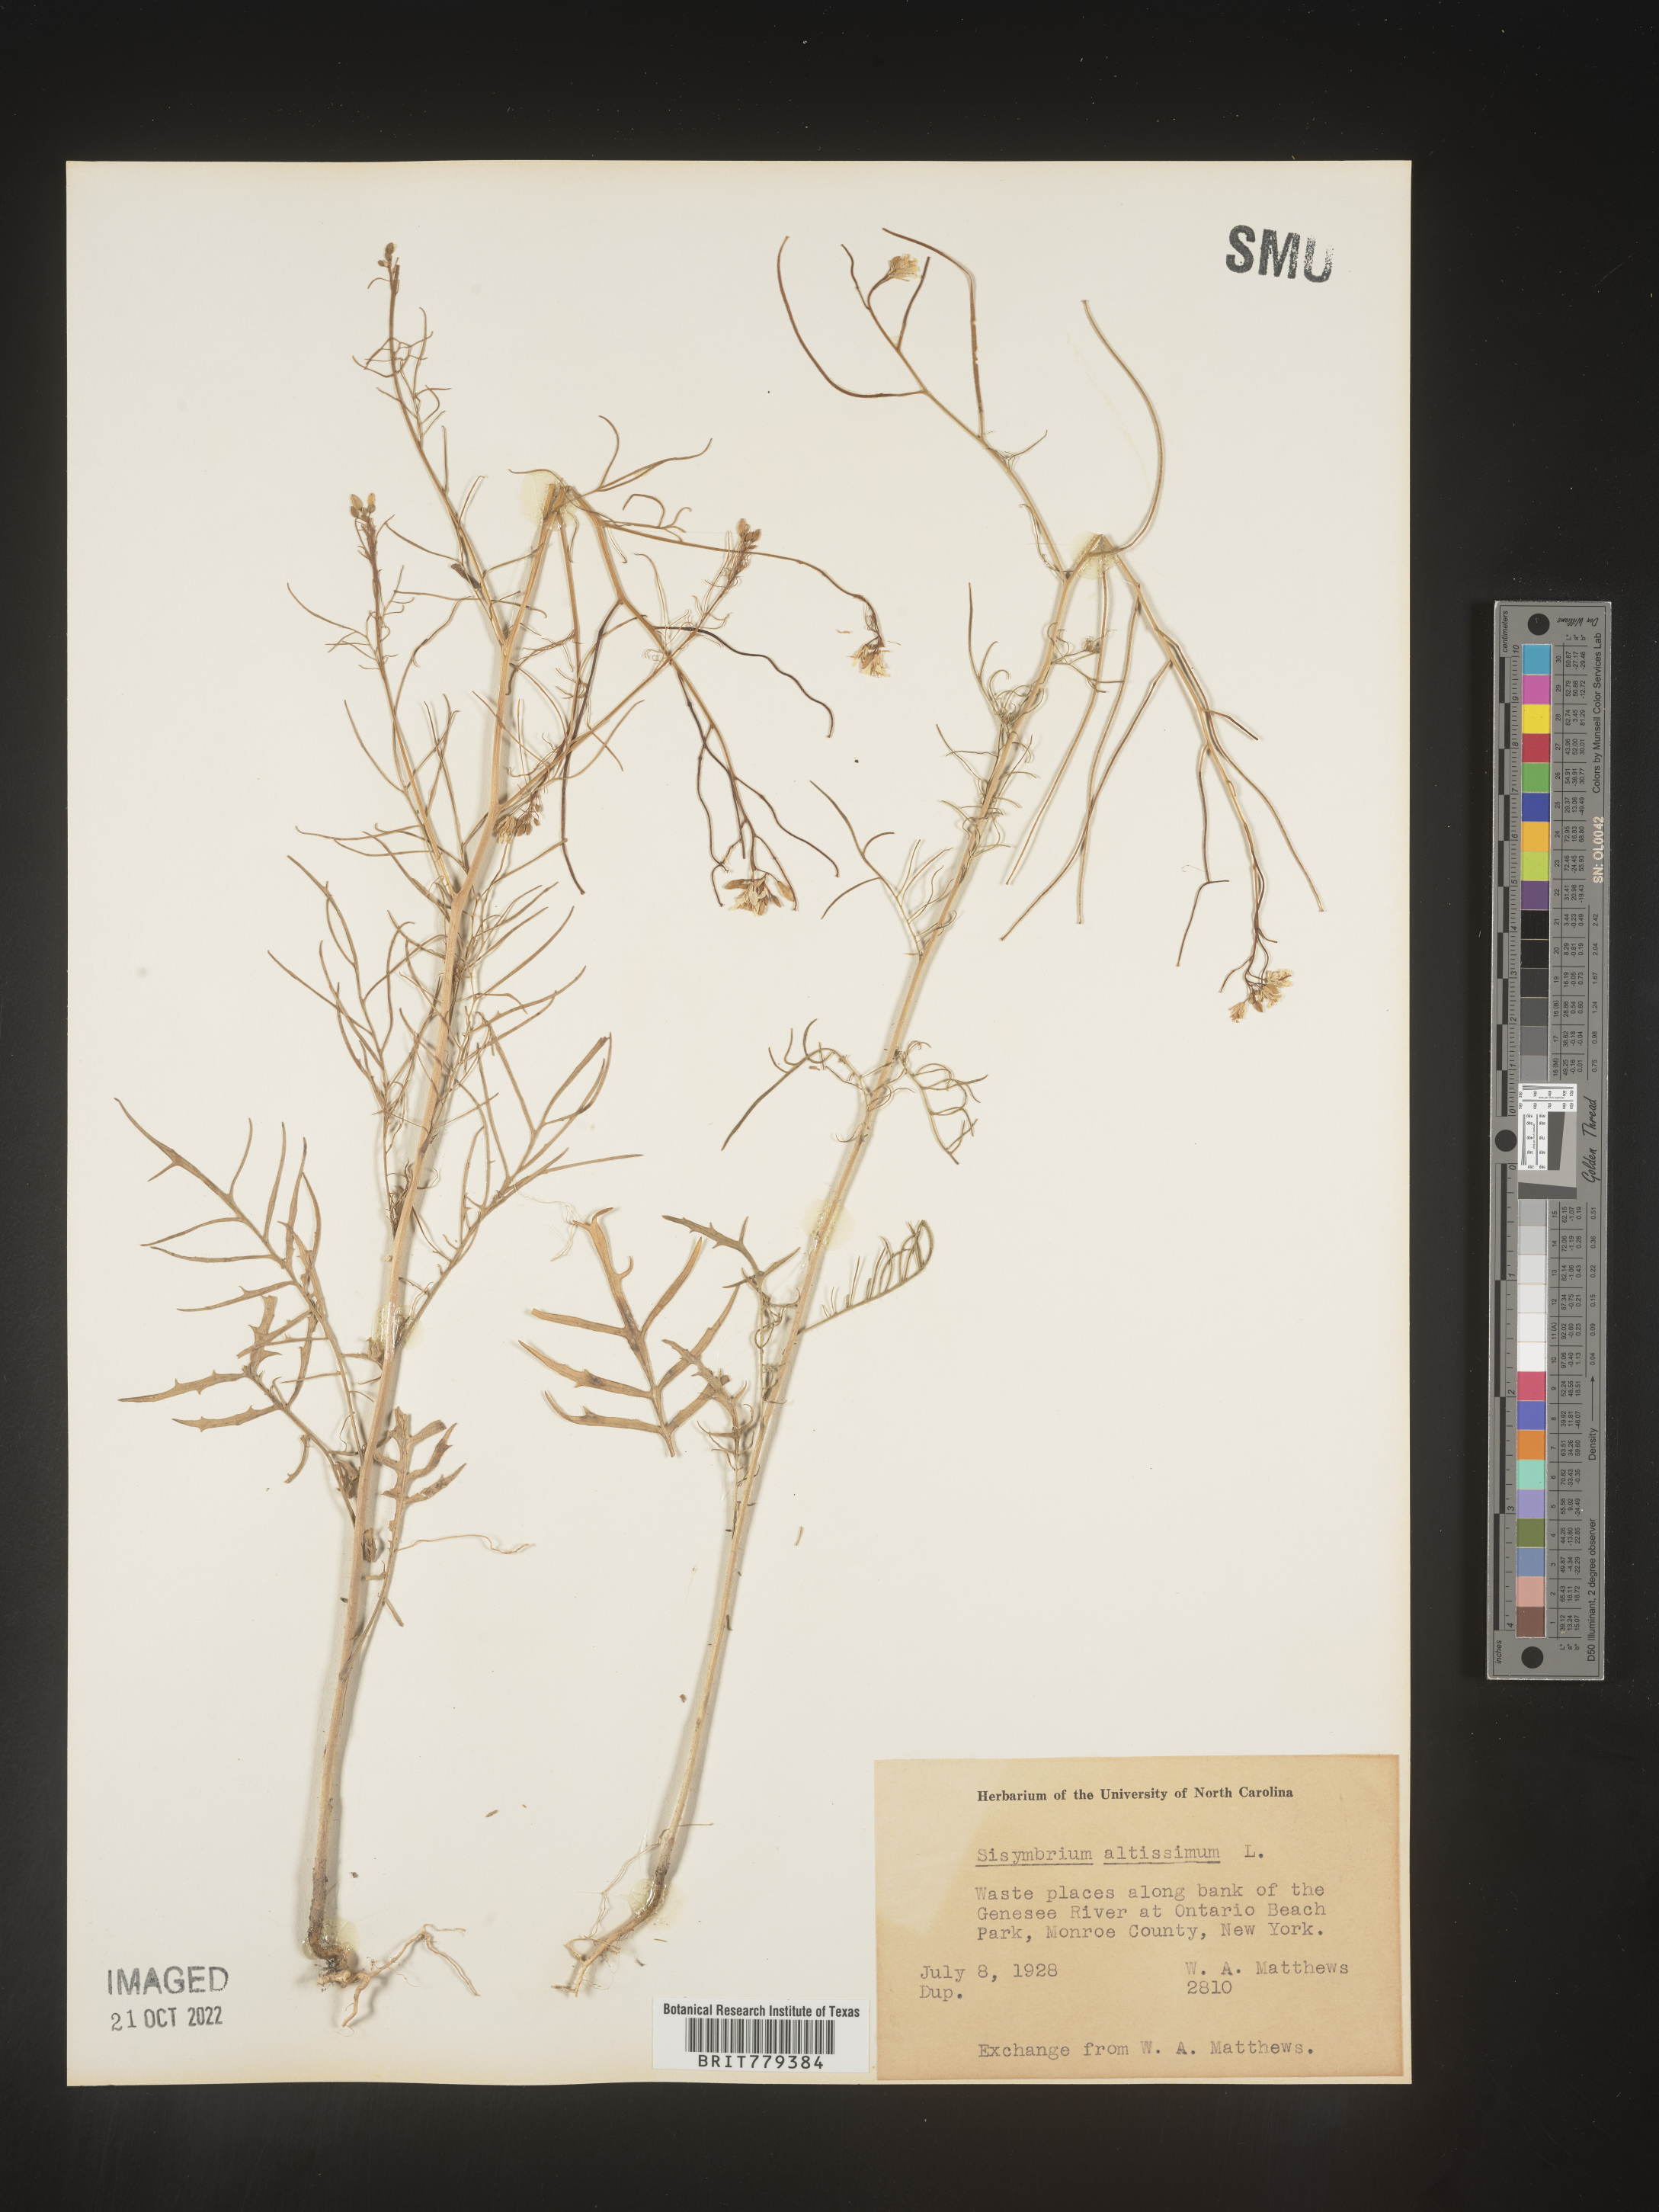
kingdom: Plantae
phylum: Tracheophyta
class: Magnoliopsida
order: Brassicales
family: Brassicaceae
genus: Sisymbrium
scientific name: Sisymbrium altissimum
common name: Tall rocket
